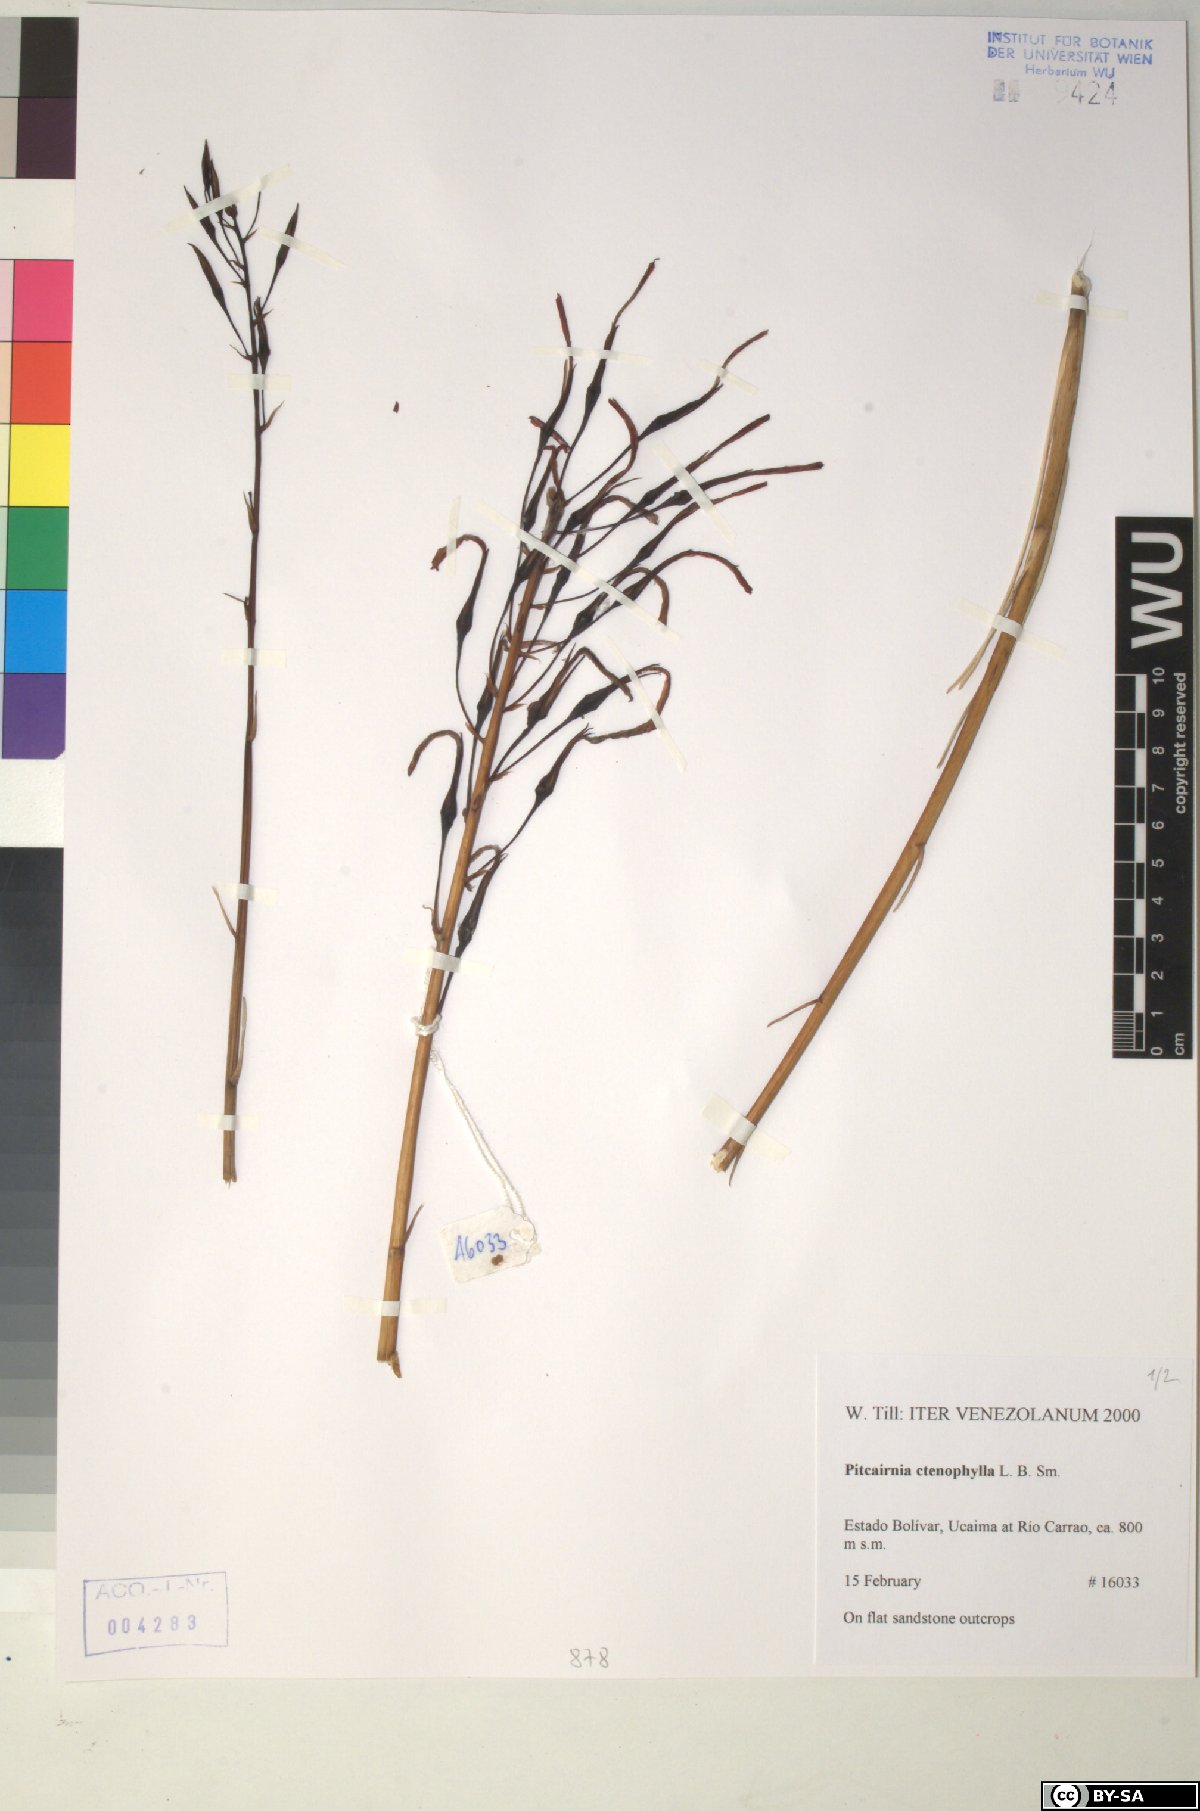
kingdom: Plantae
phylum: Tracheophyta
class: Liliopsida
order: Poales
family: Bromeliaceae
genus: Pitcairnia
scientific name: Pitcairnia ctenophylla
